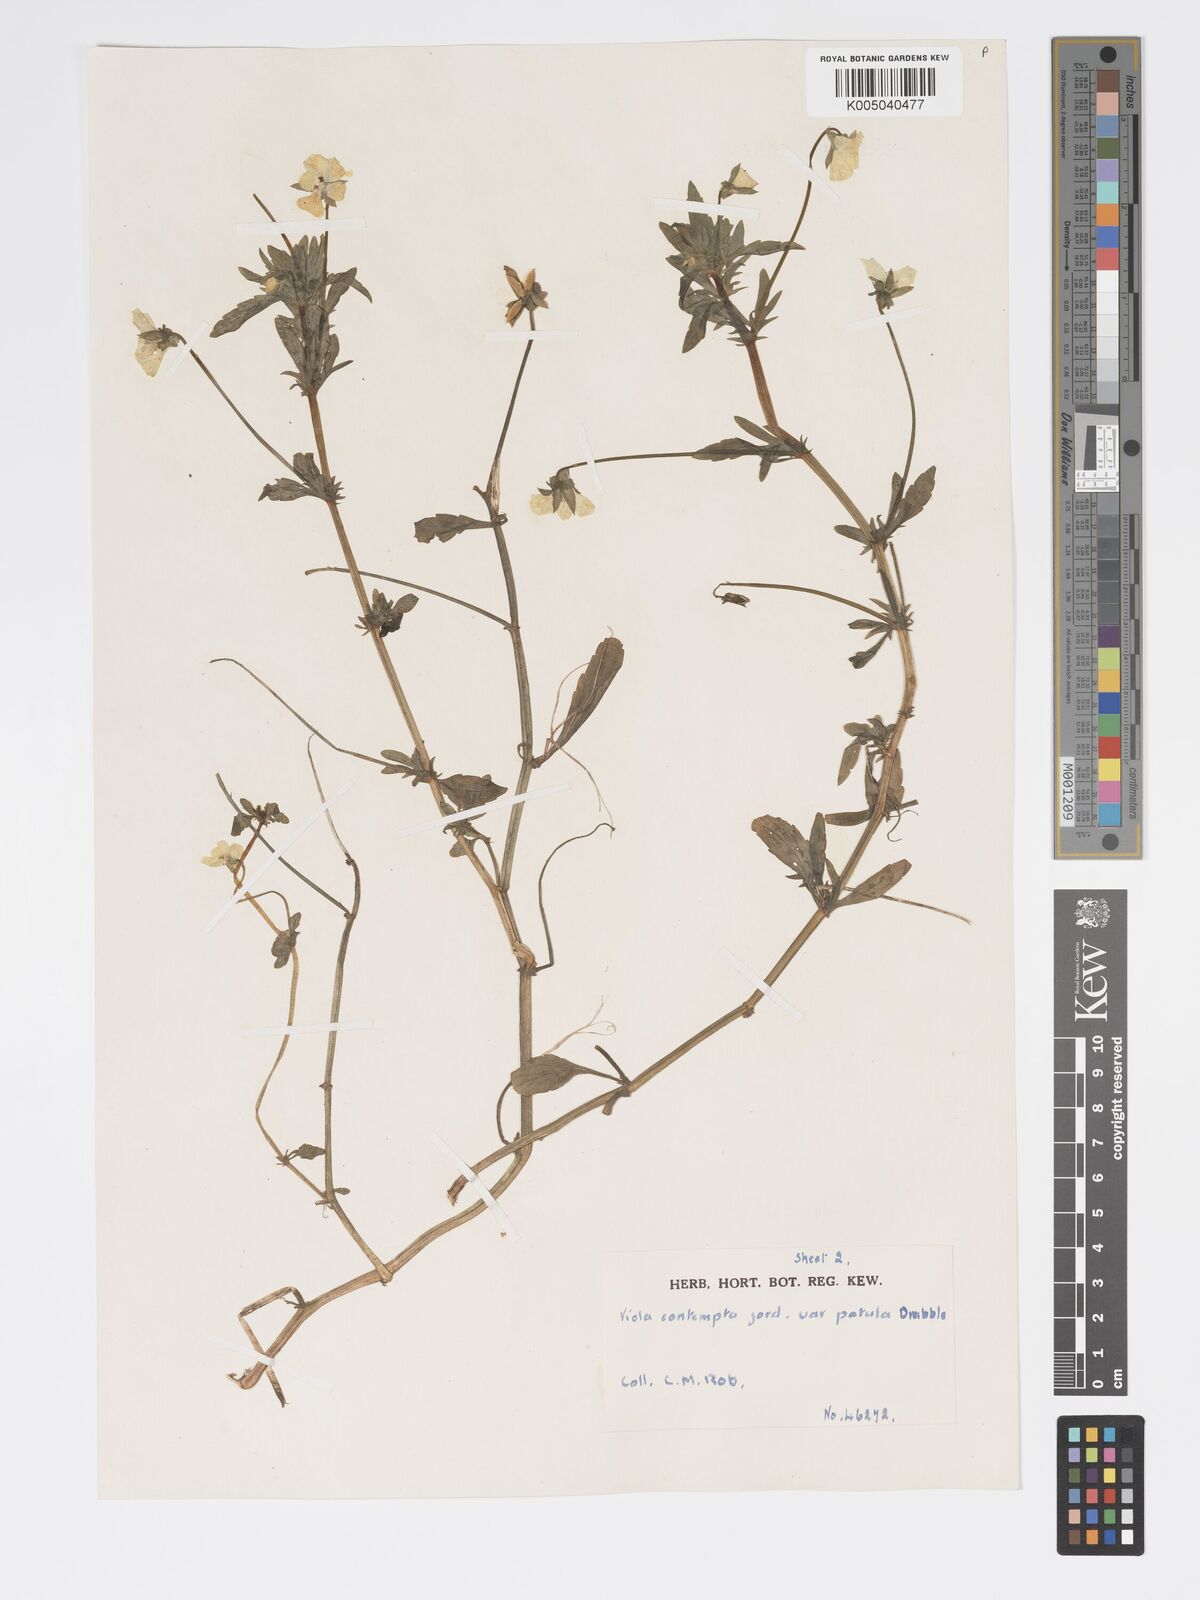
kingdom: Plantae
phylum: Tracheophyta
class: Magnoliopsida
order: Malpighiales
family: Violaceae
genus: Viola
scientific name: Viola arvensis
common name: Field pansy
